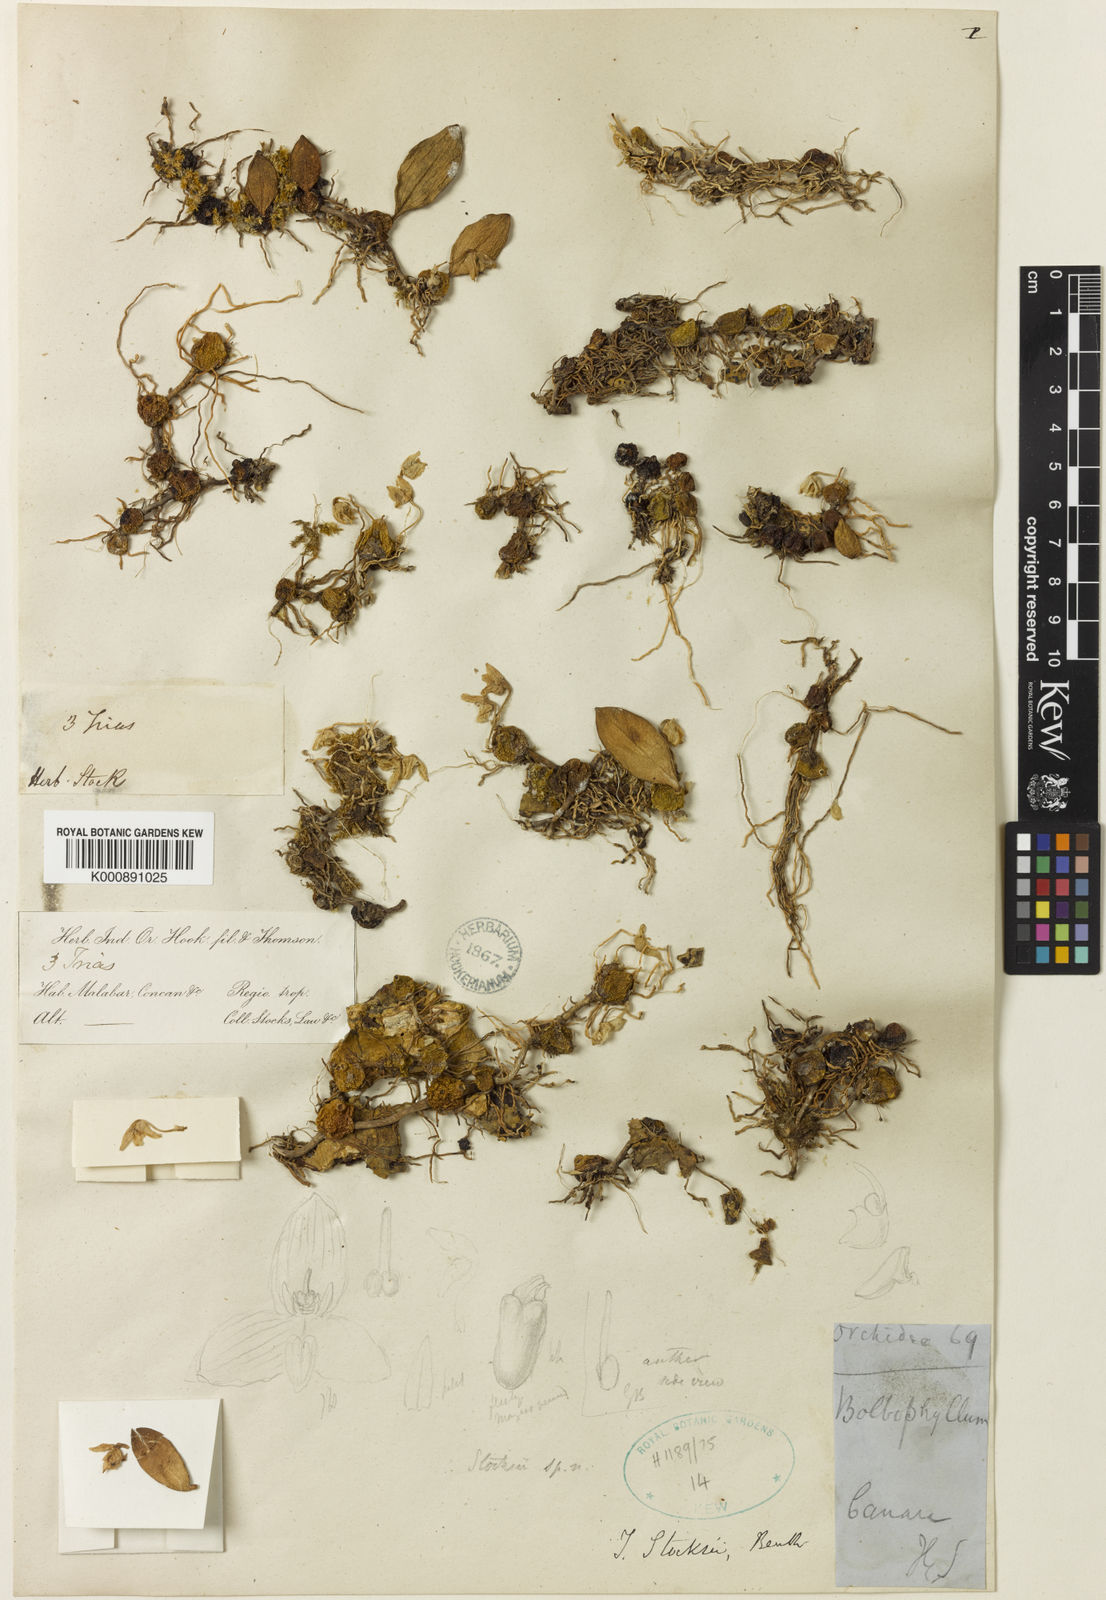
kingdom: Plantae
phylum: Tracheophyta
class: Liliopsida
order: Asparagales
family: Orchidaceae
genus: Bulbophyllum
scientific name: Bulbophyllum oblongum
